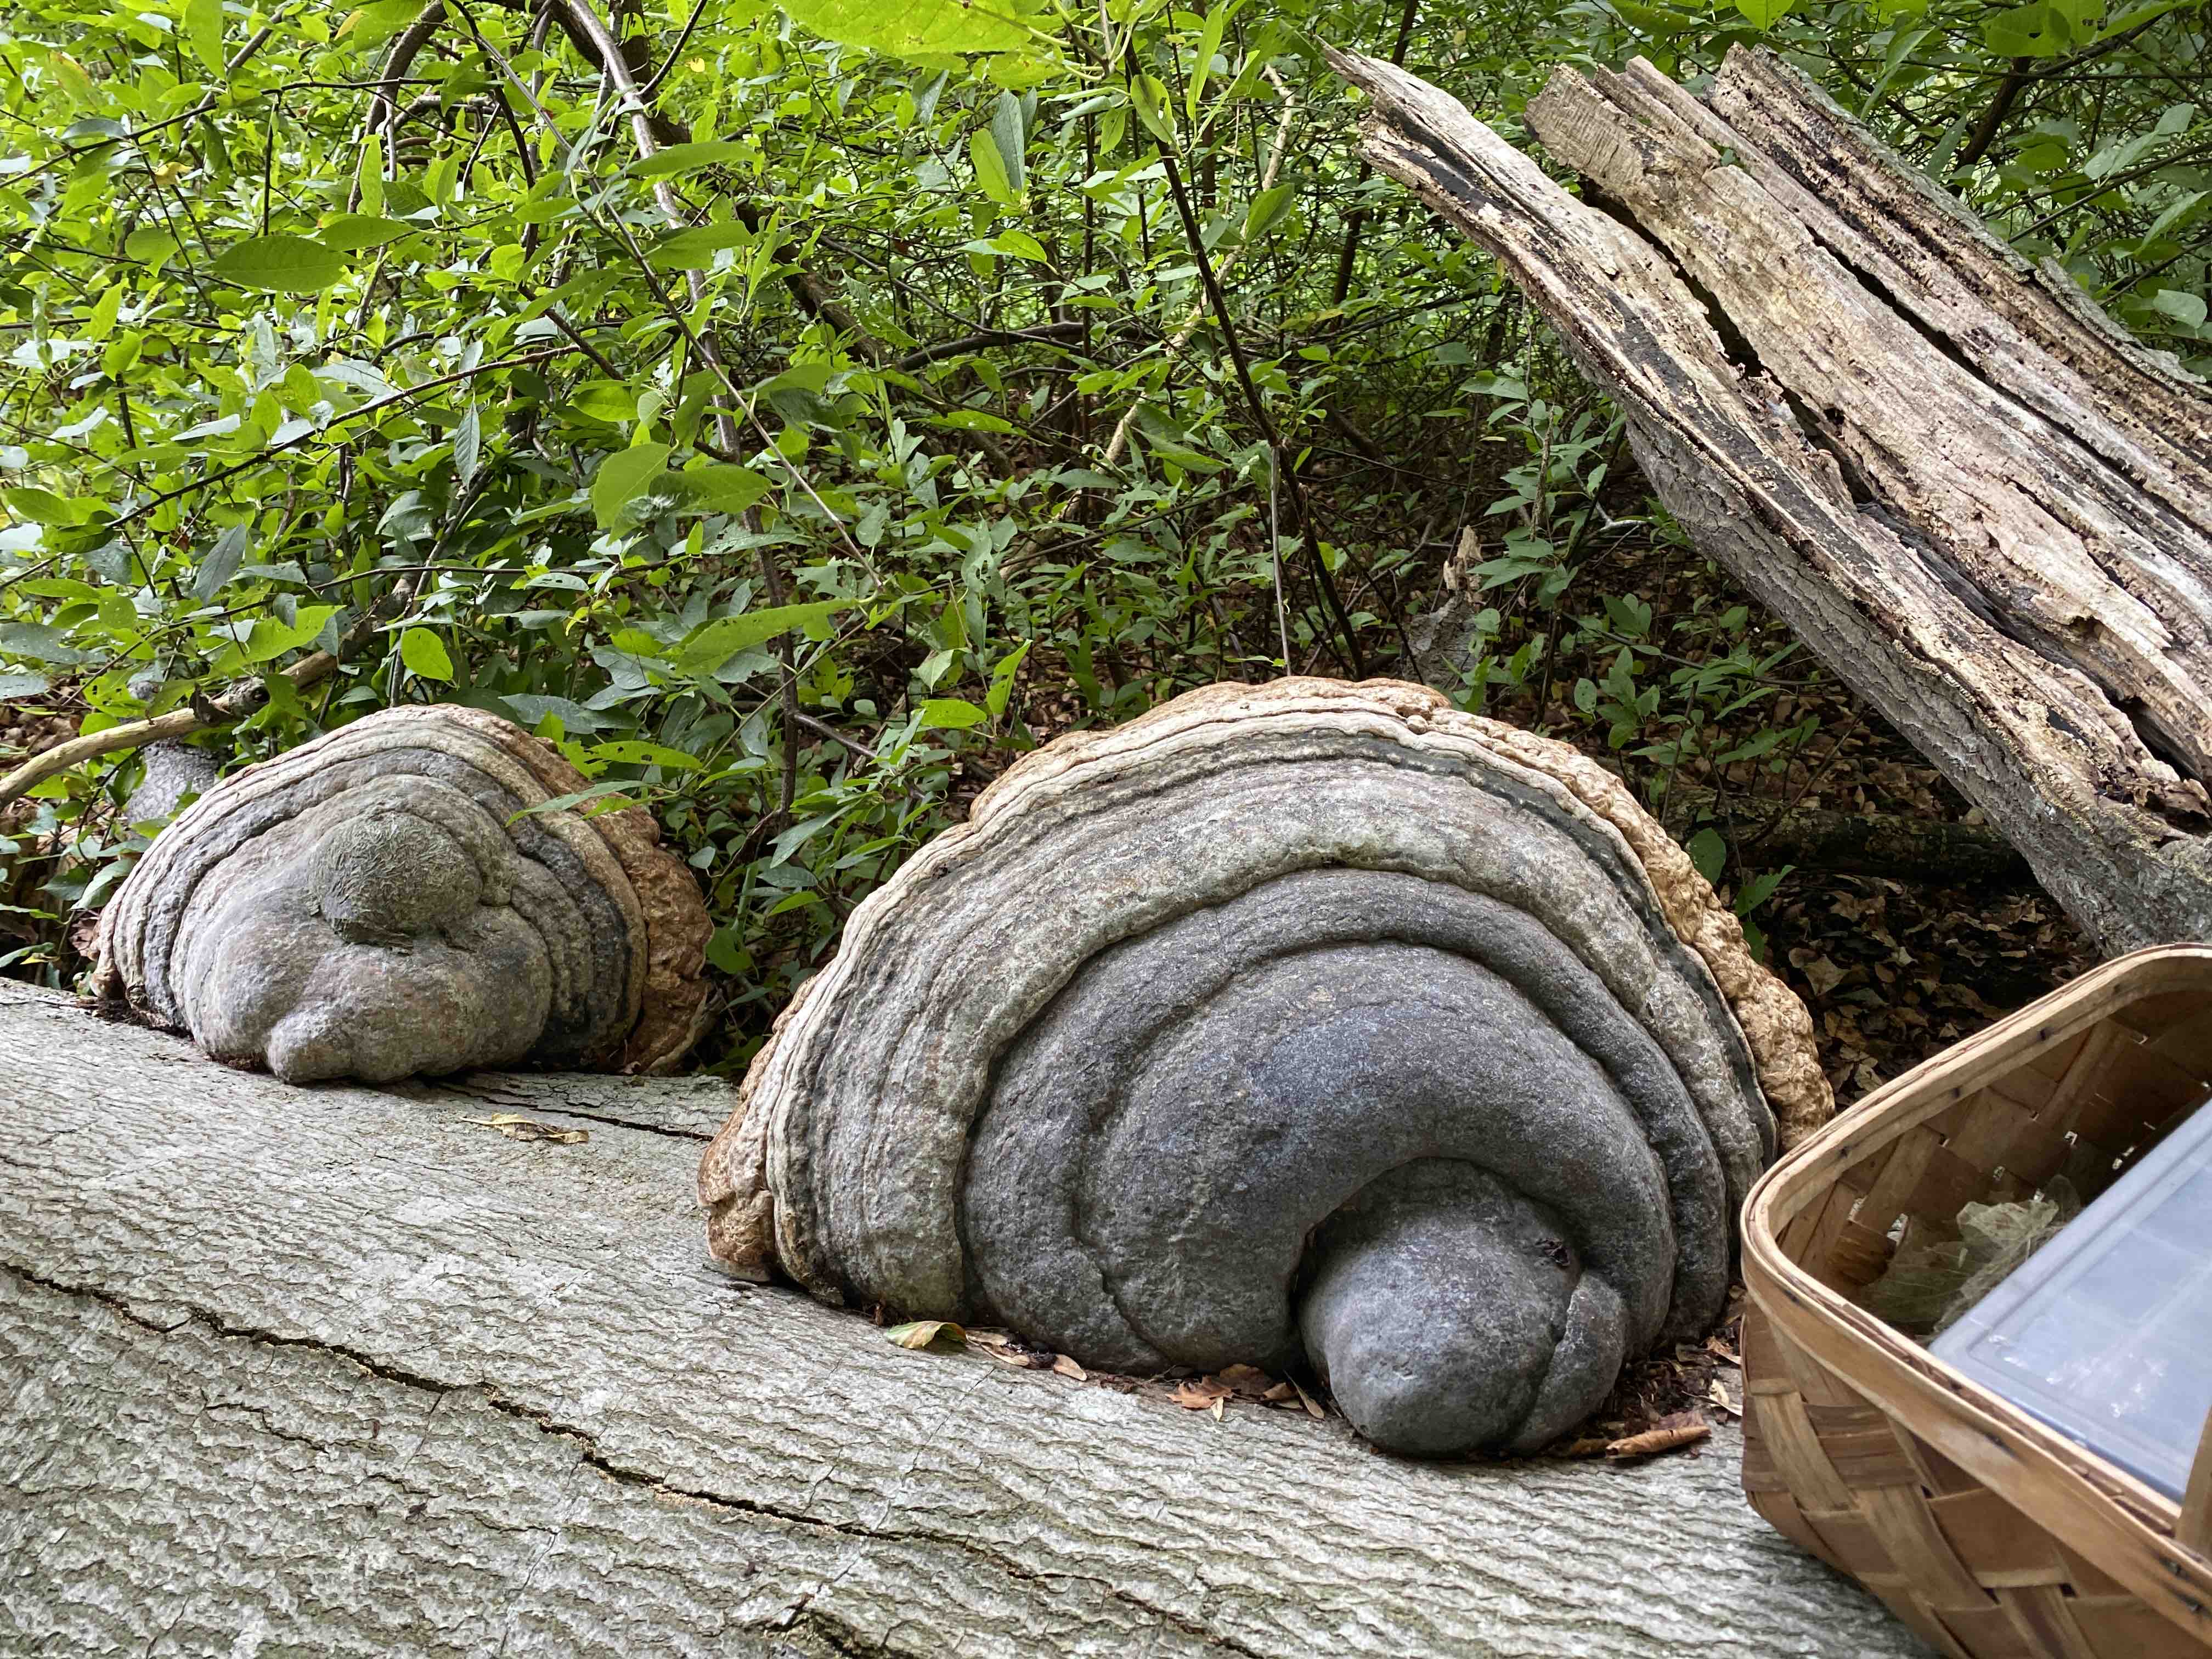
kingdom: Fungi
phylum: Basidiomycota
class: Agaricomycetes
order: Polyporales
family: Polyporaceae
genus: Fomes
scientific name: Fomes fomentarius
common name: tøndersvamp
